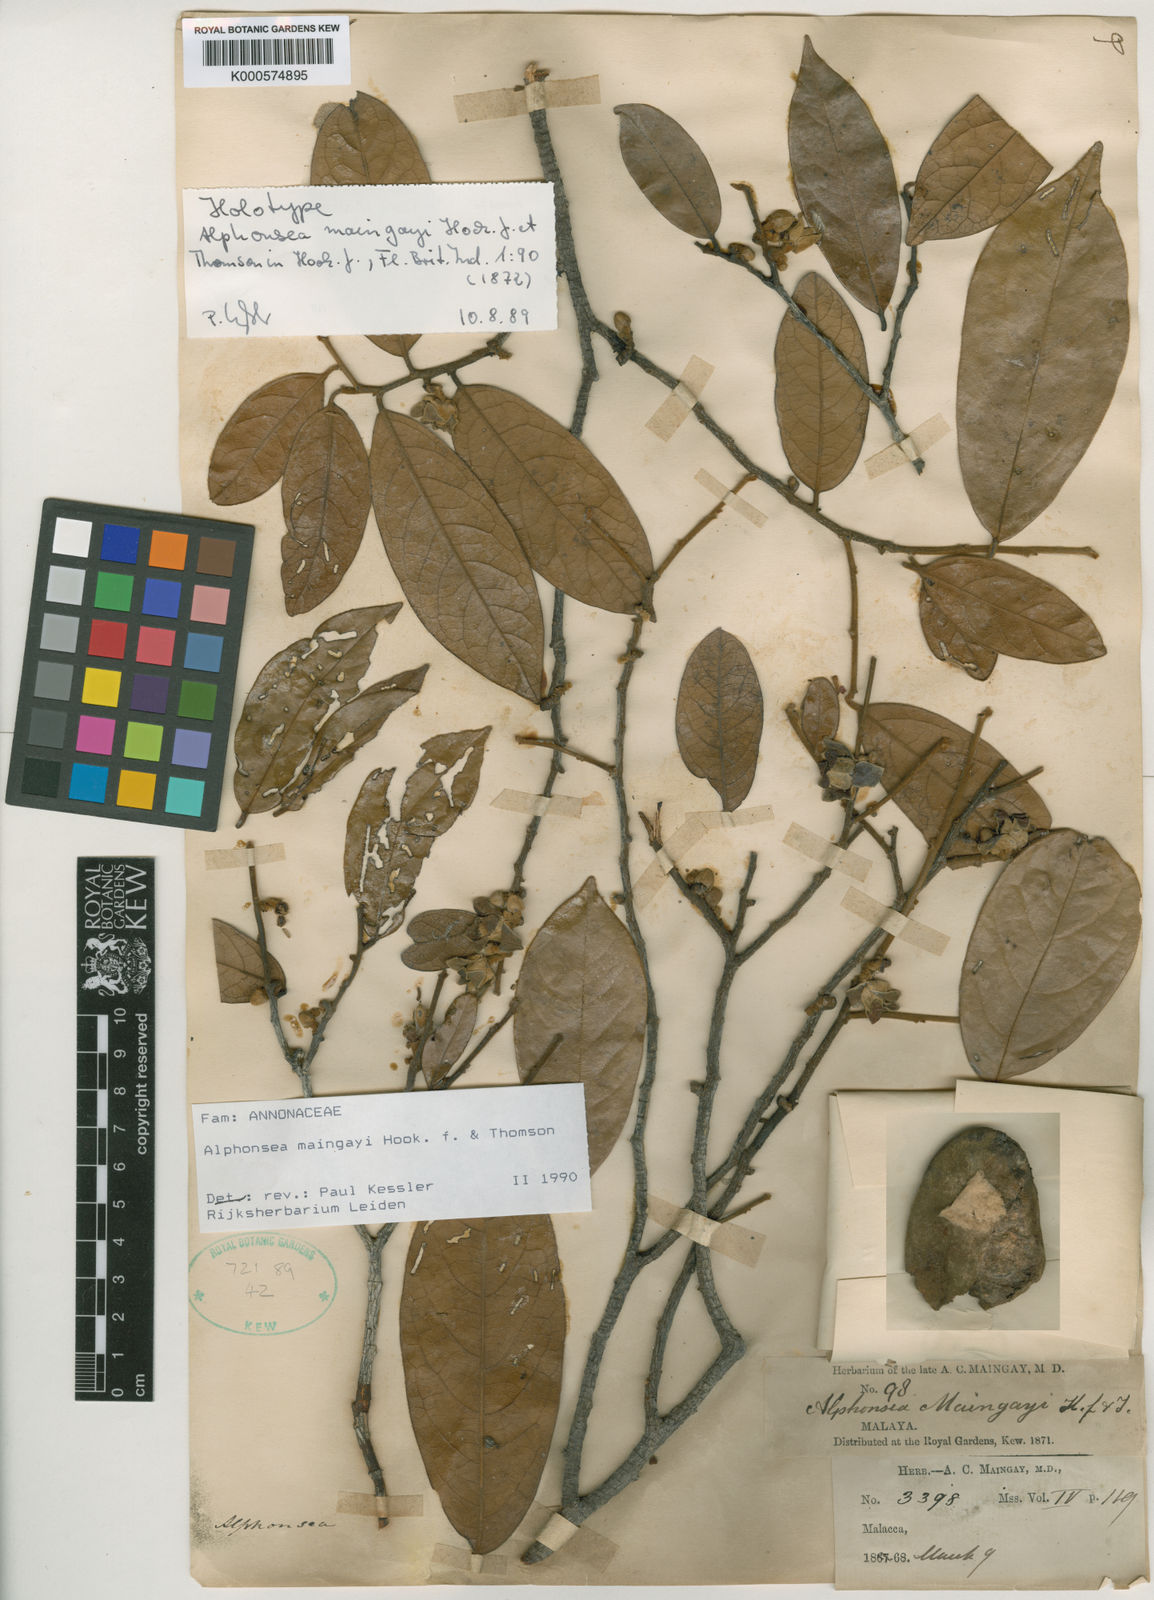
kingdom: Plantae
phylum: Tracheophyta
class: Magnoliopsida
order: Magnoliales
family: Annonaceae
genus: Alphonsea
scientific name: Alphonsea maingayi
